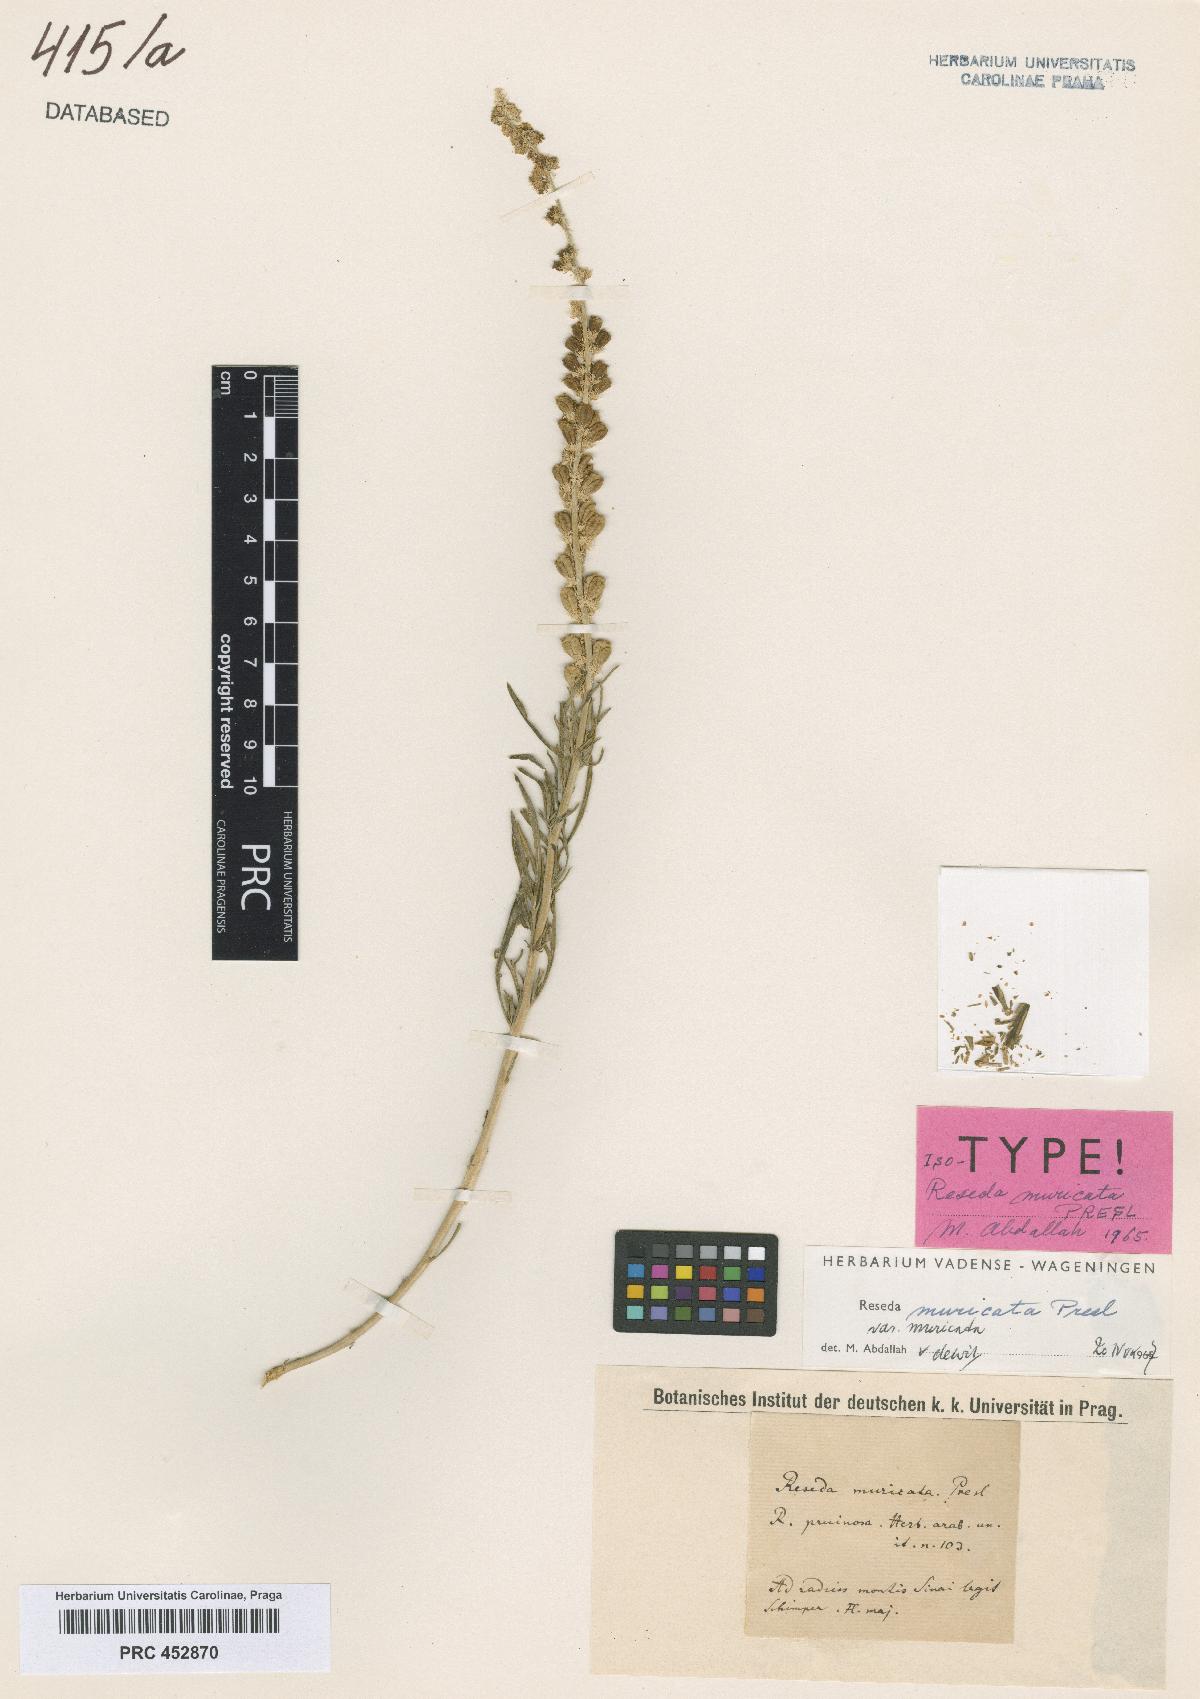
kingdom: Plantae
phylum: Tracheophyta
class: Magnoliopsida
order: Brassicales
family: Resedaceae
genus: Reseda
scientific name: Reseda muricata
